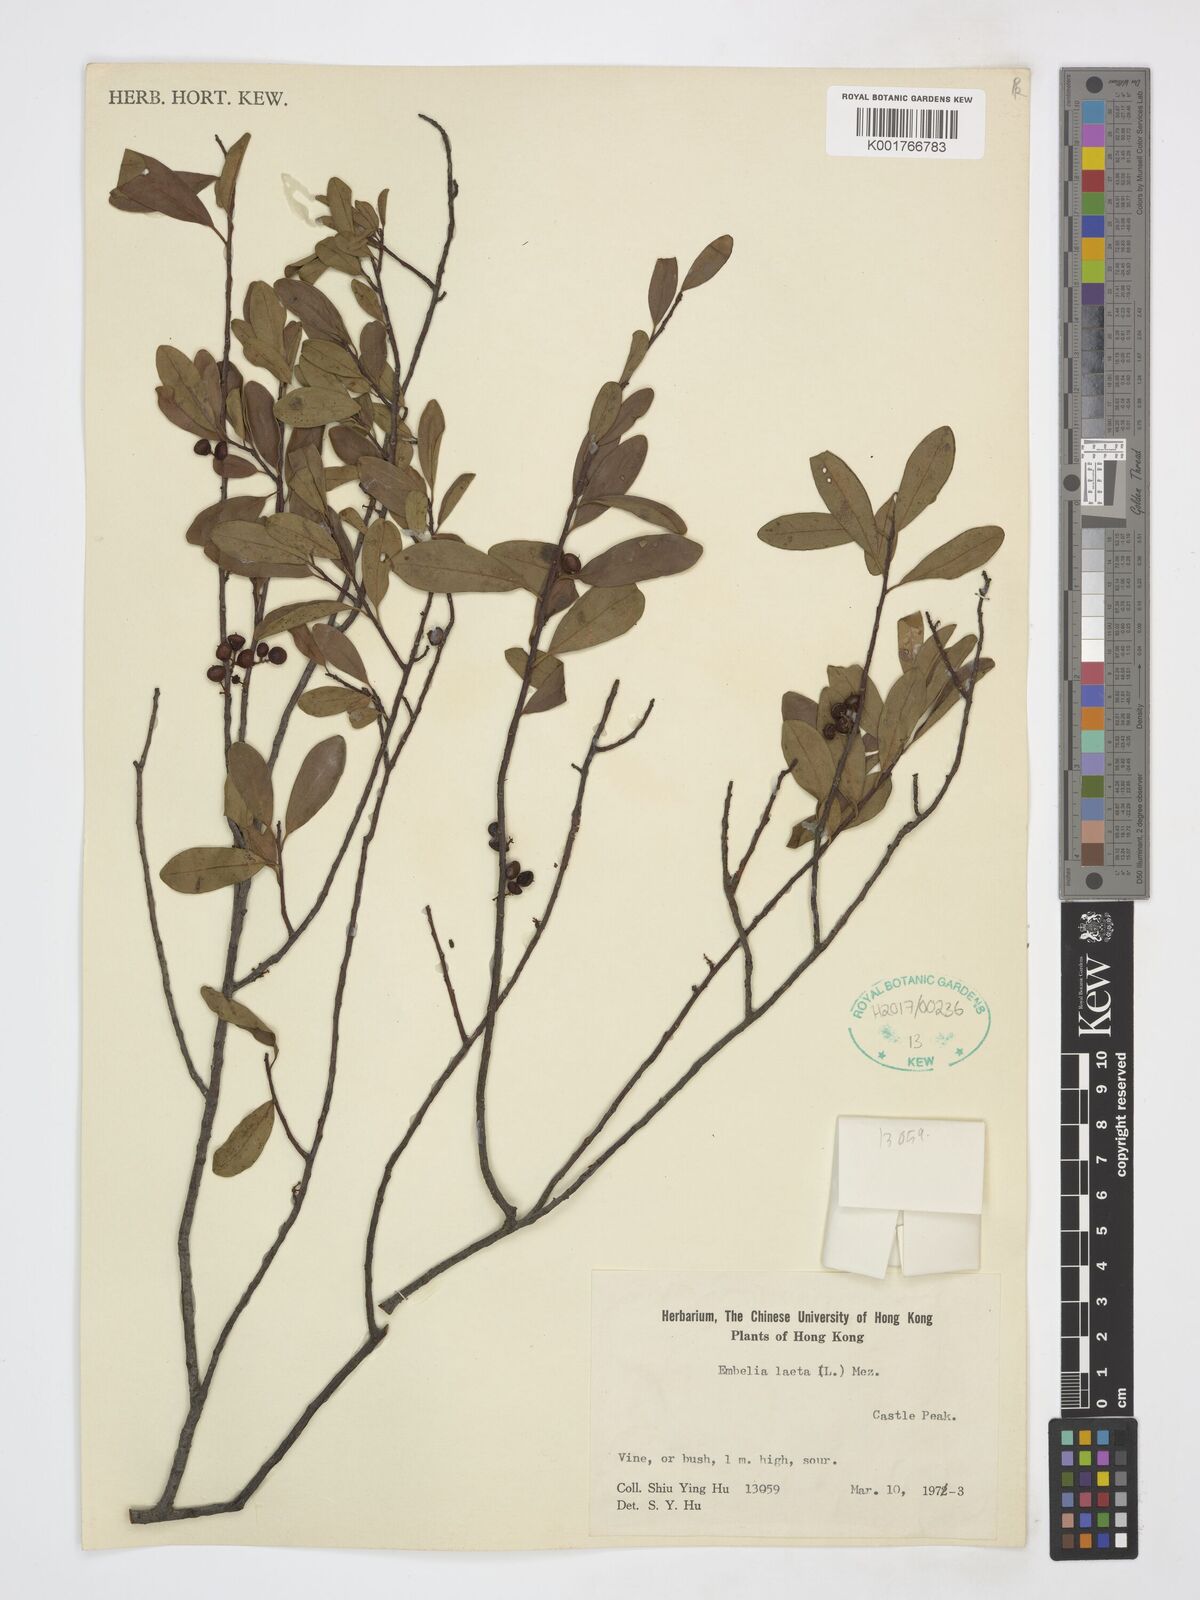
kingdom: Plantae
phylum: Tracheophyta
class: Magnoliopsida
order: Ericales
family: Primulaceae
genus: Embelia
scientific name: Embelia laeta
